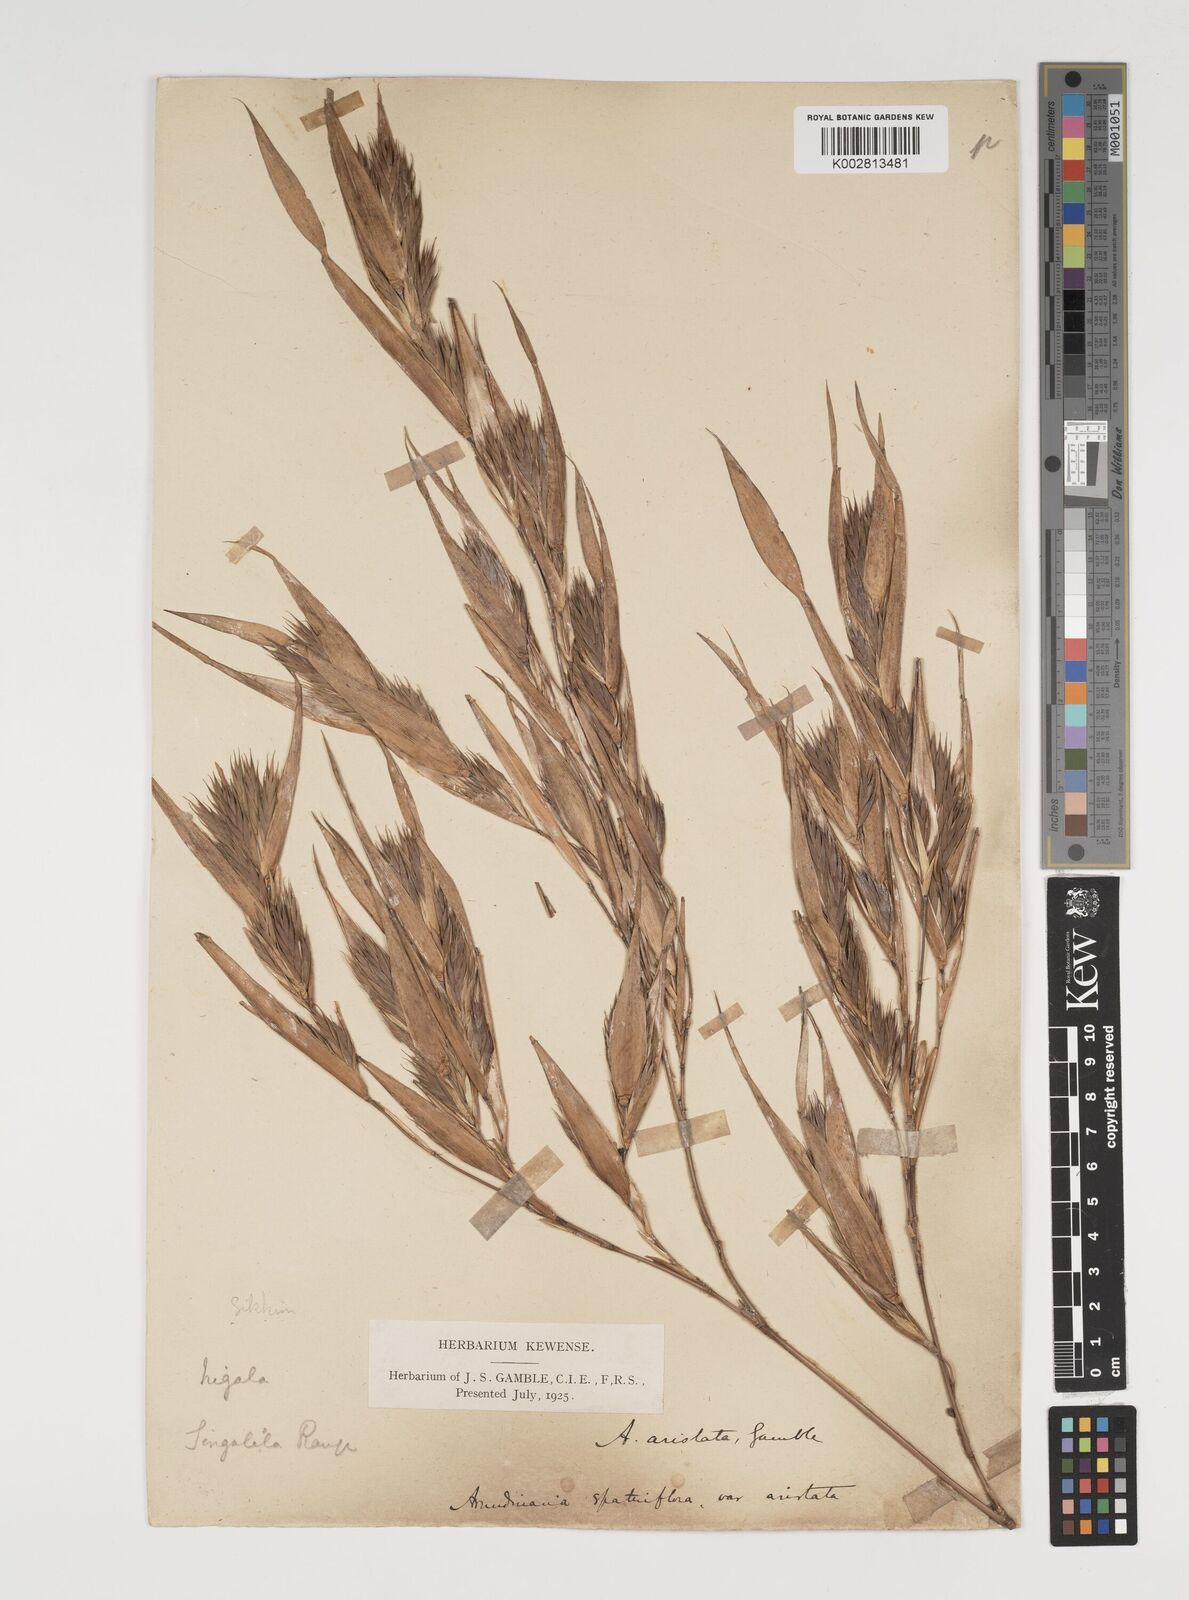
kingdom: Plantae
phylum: Tracheophyta
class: Liliopsida
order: Poales
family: Poaceae
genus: Thamnocalamus
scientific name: Thamnocalamus spathiflorus
